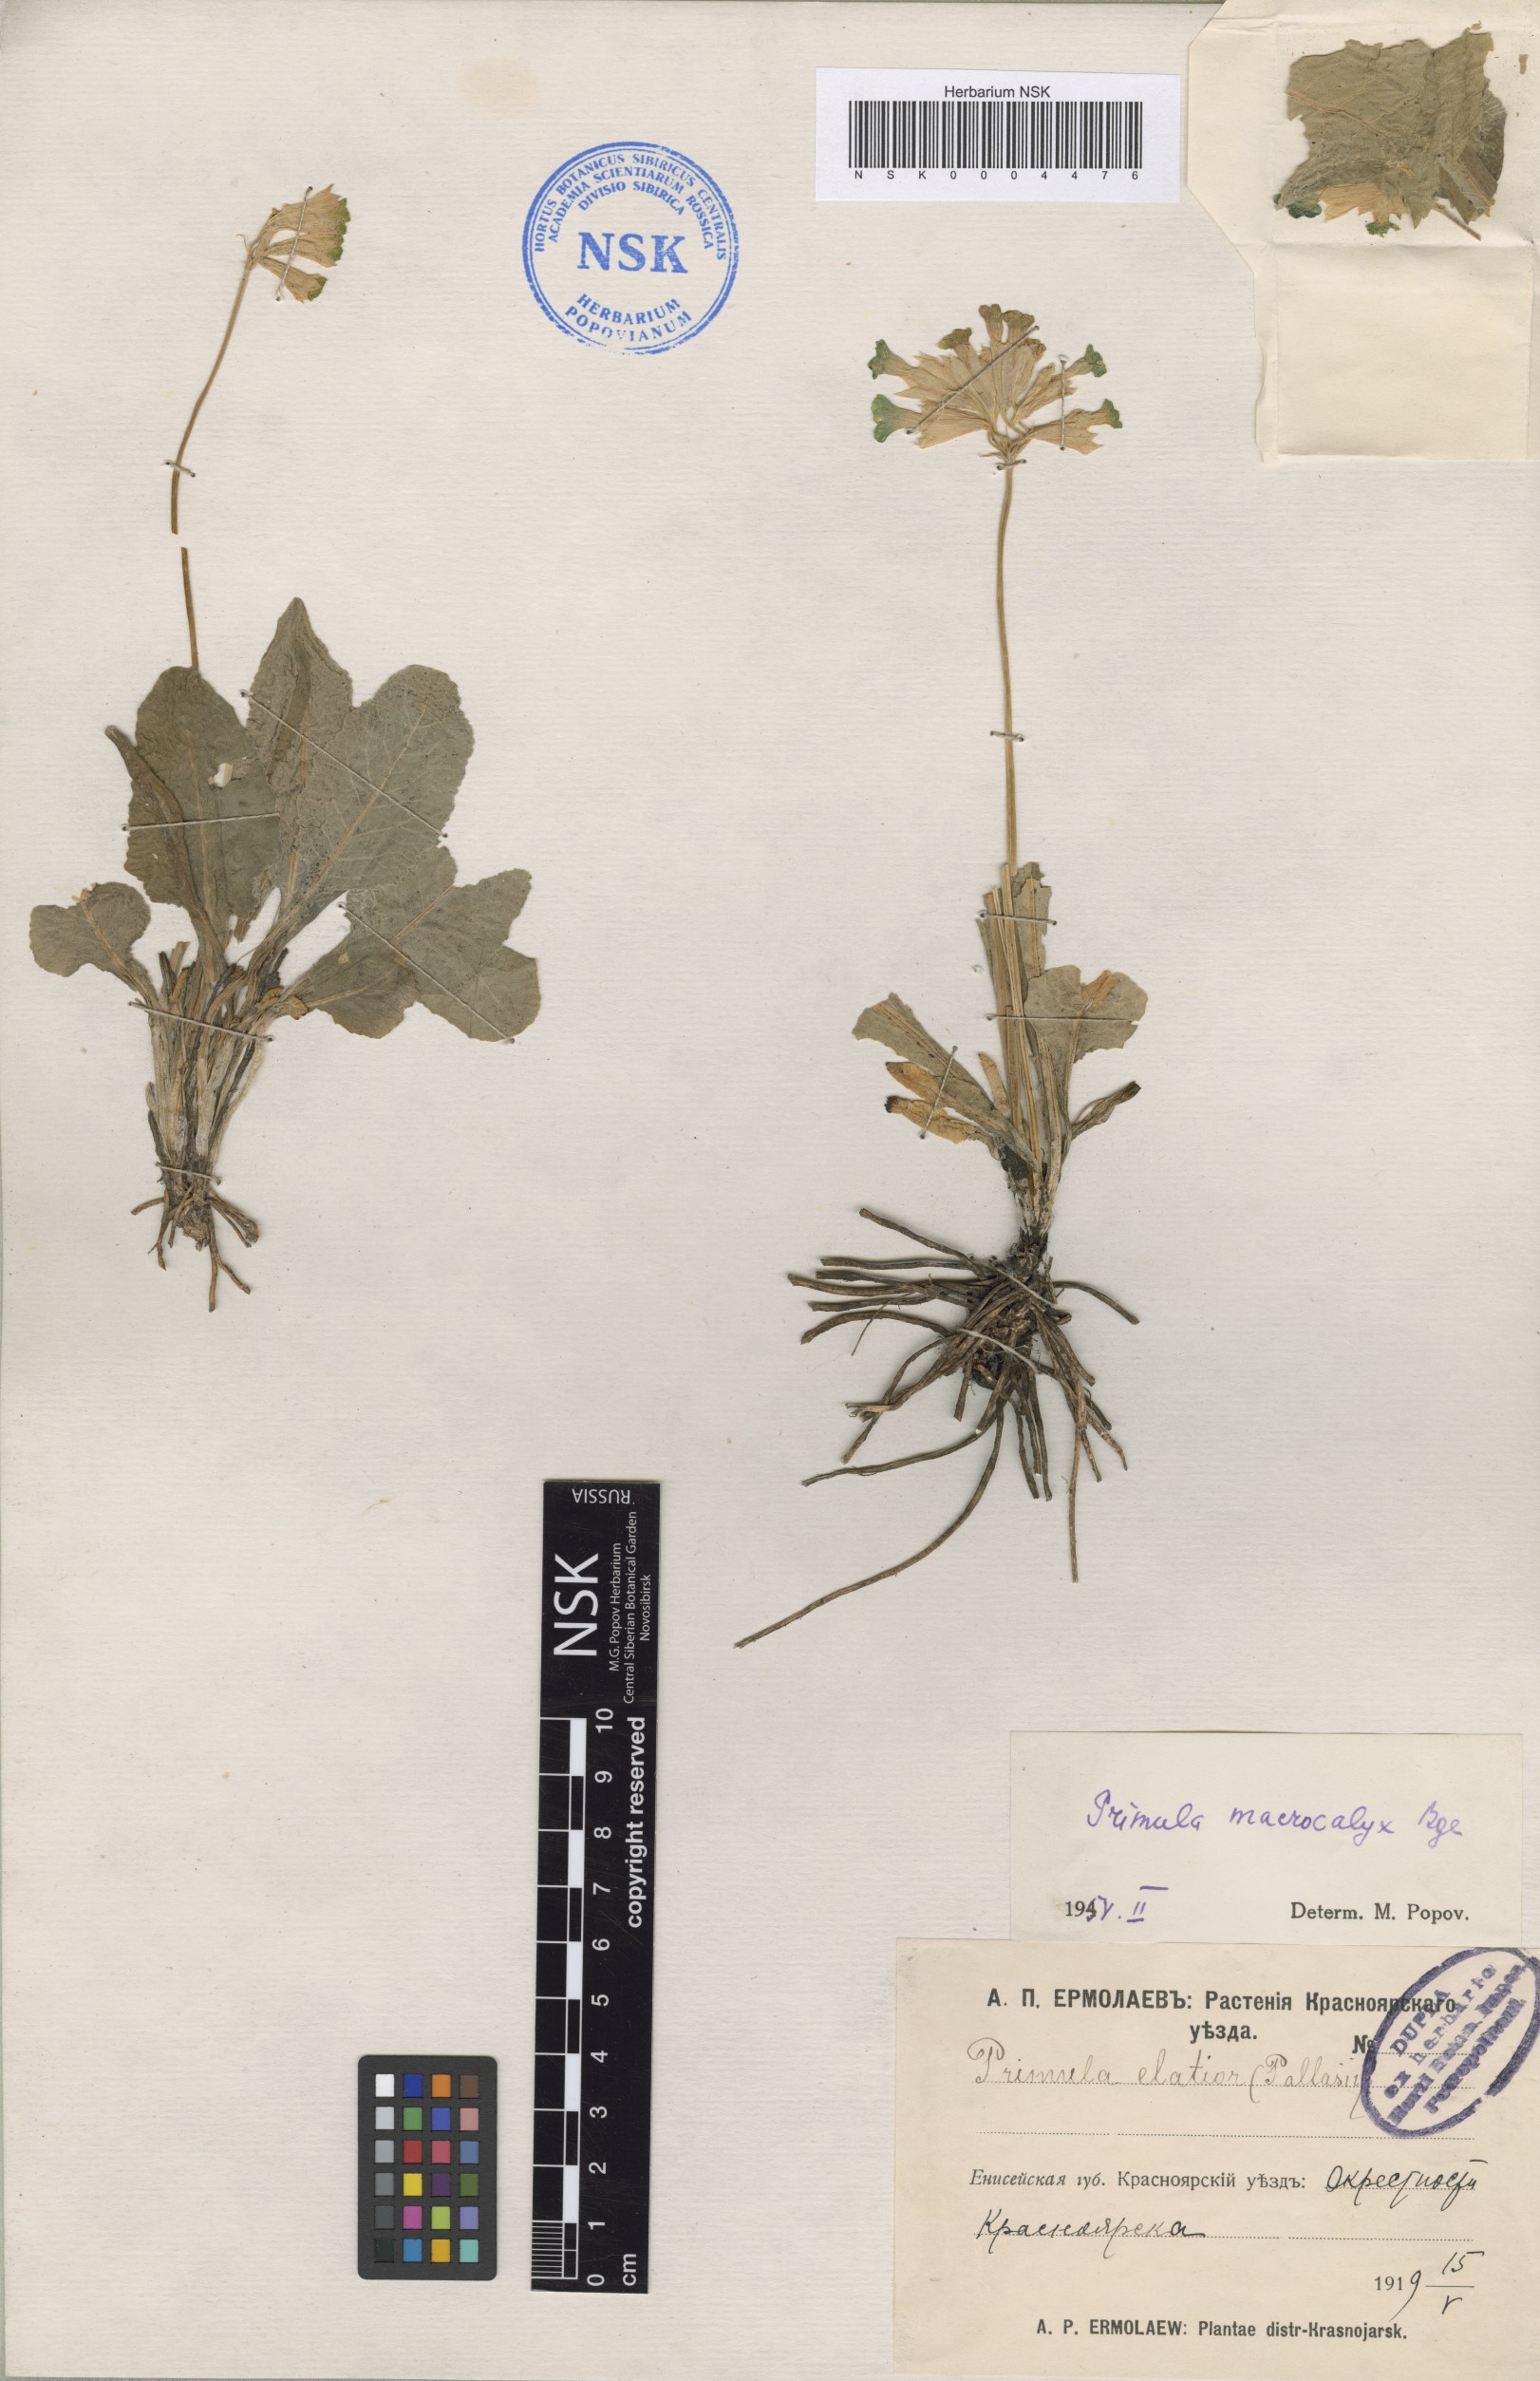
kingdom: Plantae
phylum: Tracheophyta
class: Magnoliopsida
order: Ericales
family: Primulaceae
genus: Primula
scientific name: Primula veris
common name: Cowslip
